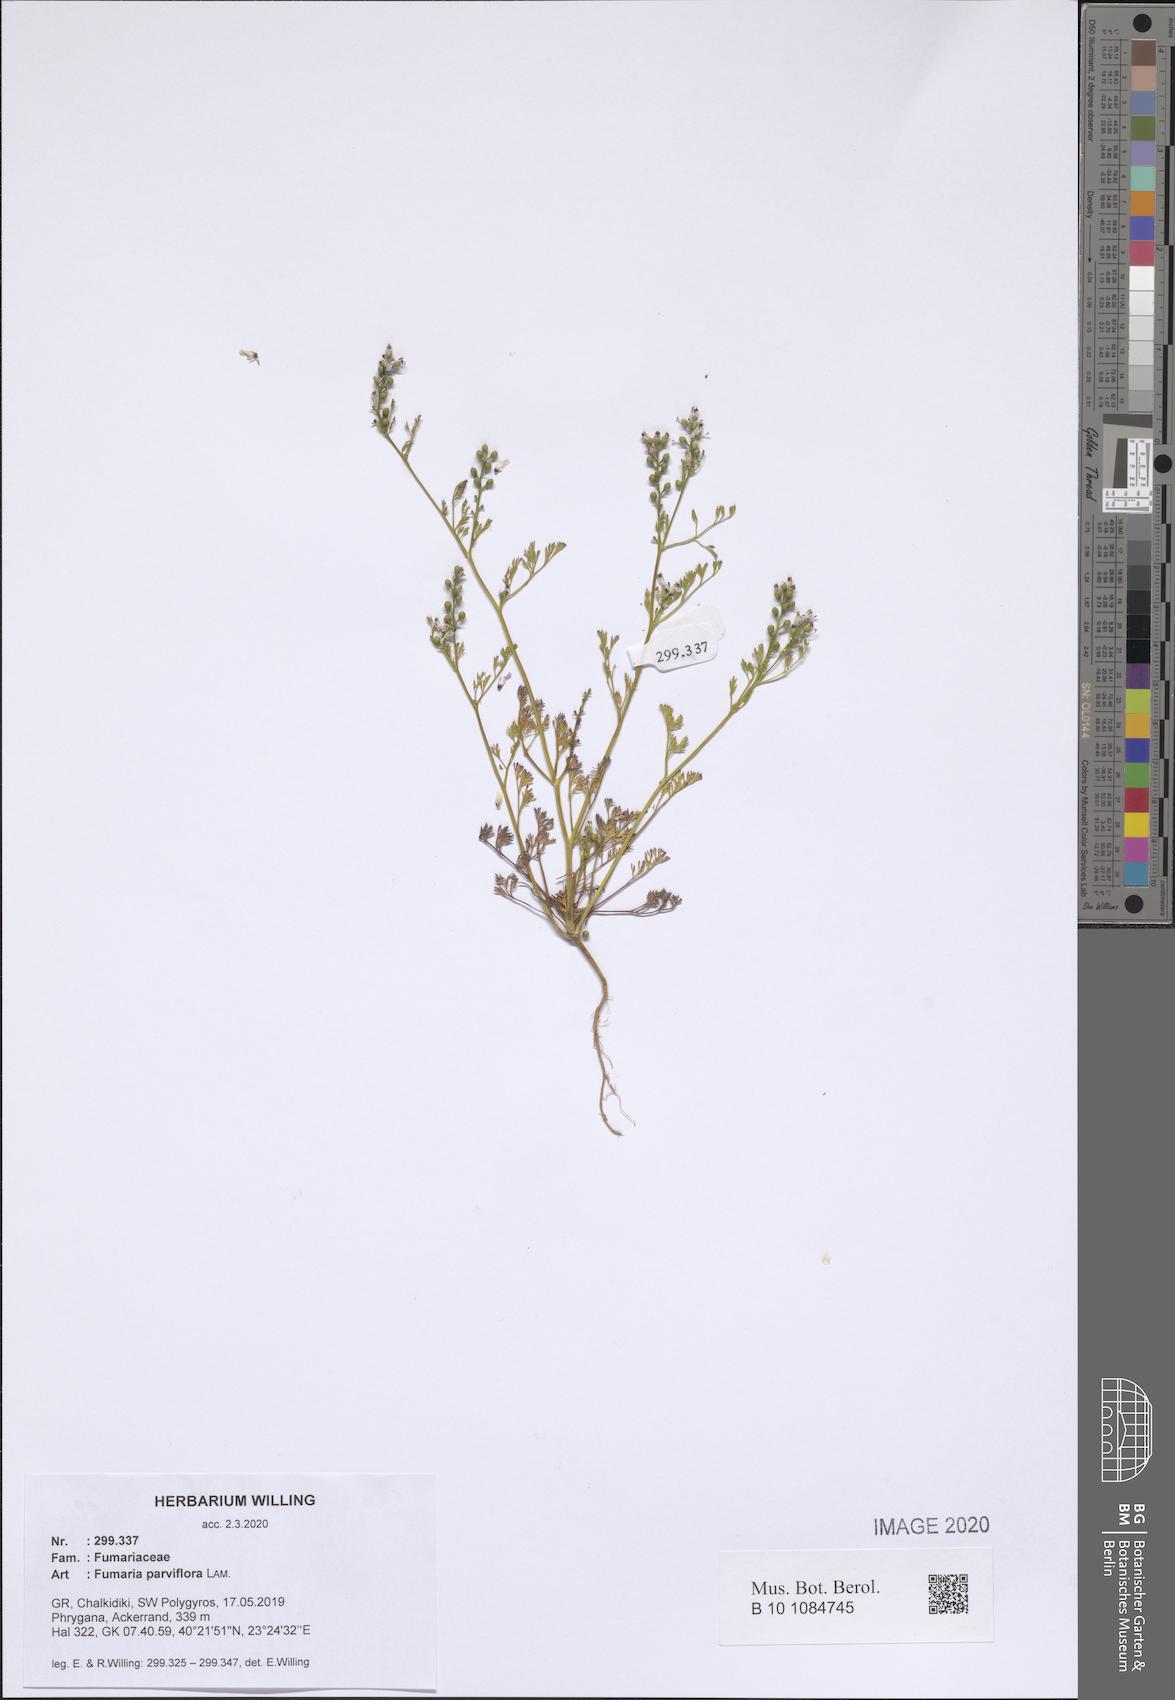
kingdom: Plantae
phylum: Tracheophyta
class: Magnoliopsida
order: Ranunculales
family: Papaveraceae
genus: Fumaria
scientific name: Fumaria parviflora
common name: Fine-leaved fumitory
